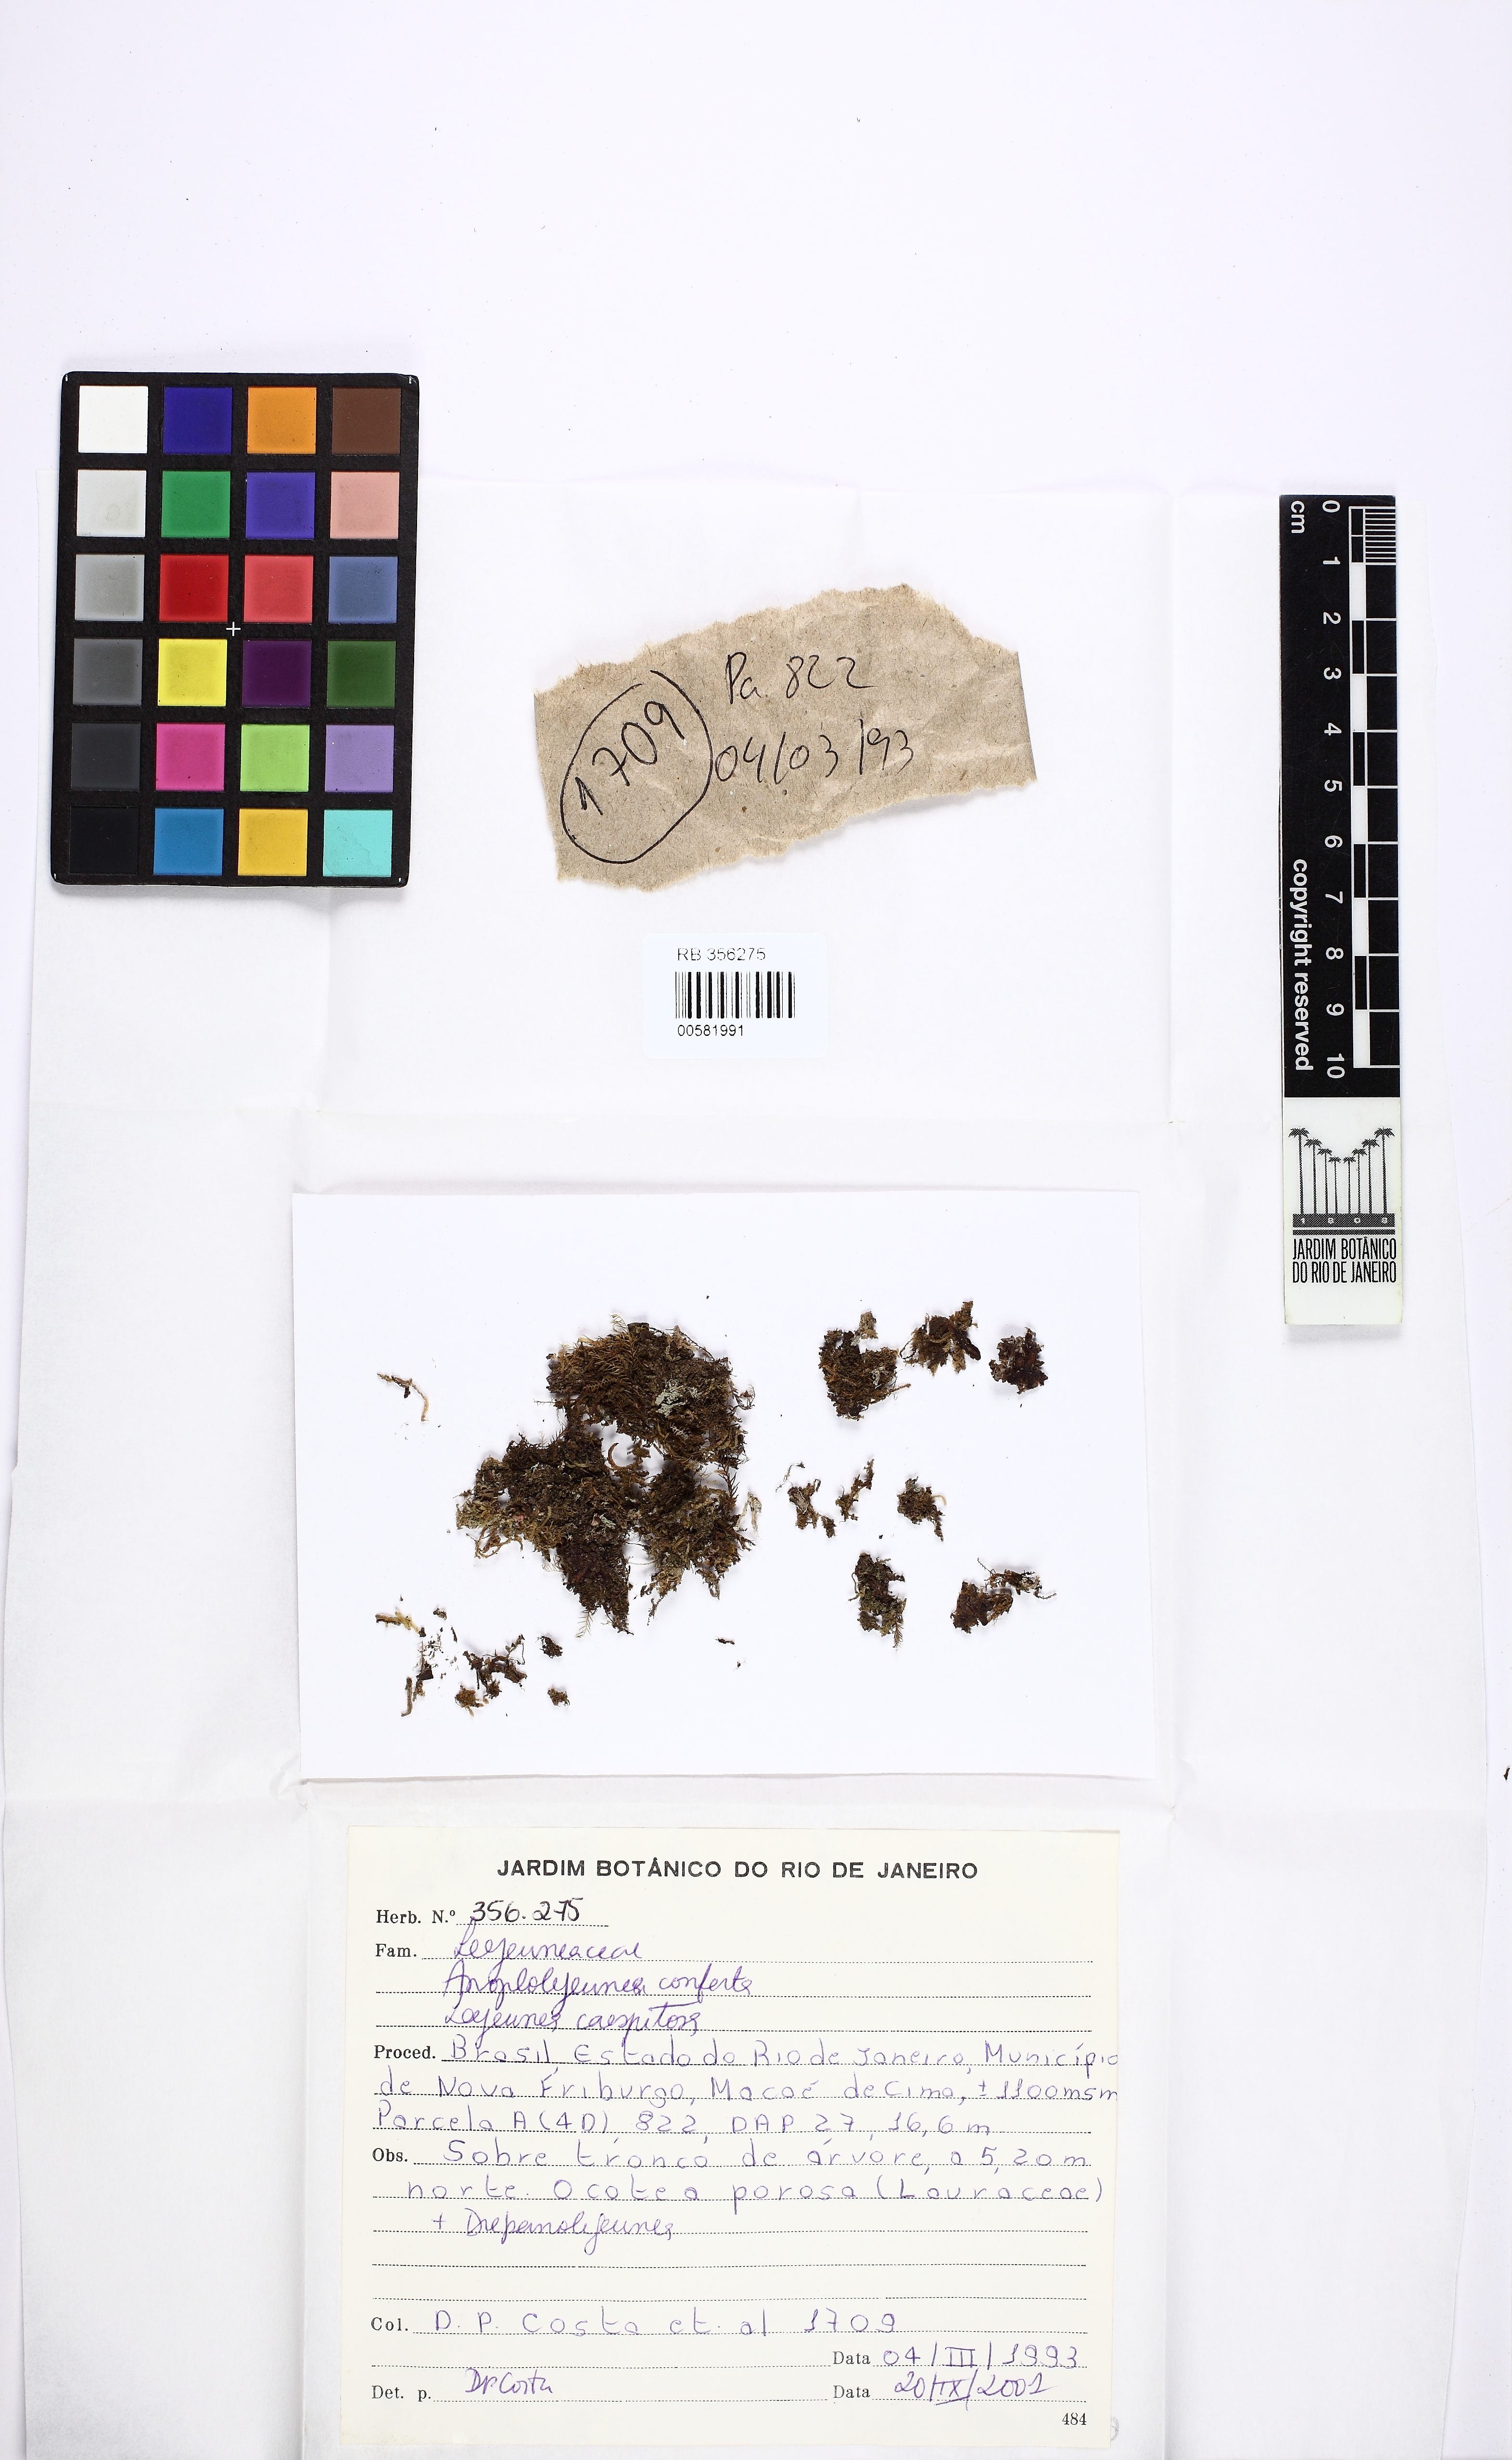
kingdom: Plantae
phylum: Marchantiophyta
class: Jungermanniopsida
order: Porellales
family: Lejeuneaceae
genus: Anoplolejeunea
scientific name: Anoplolejeunea conferta
